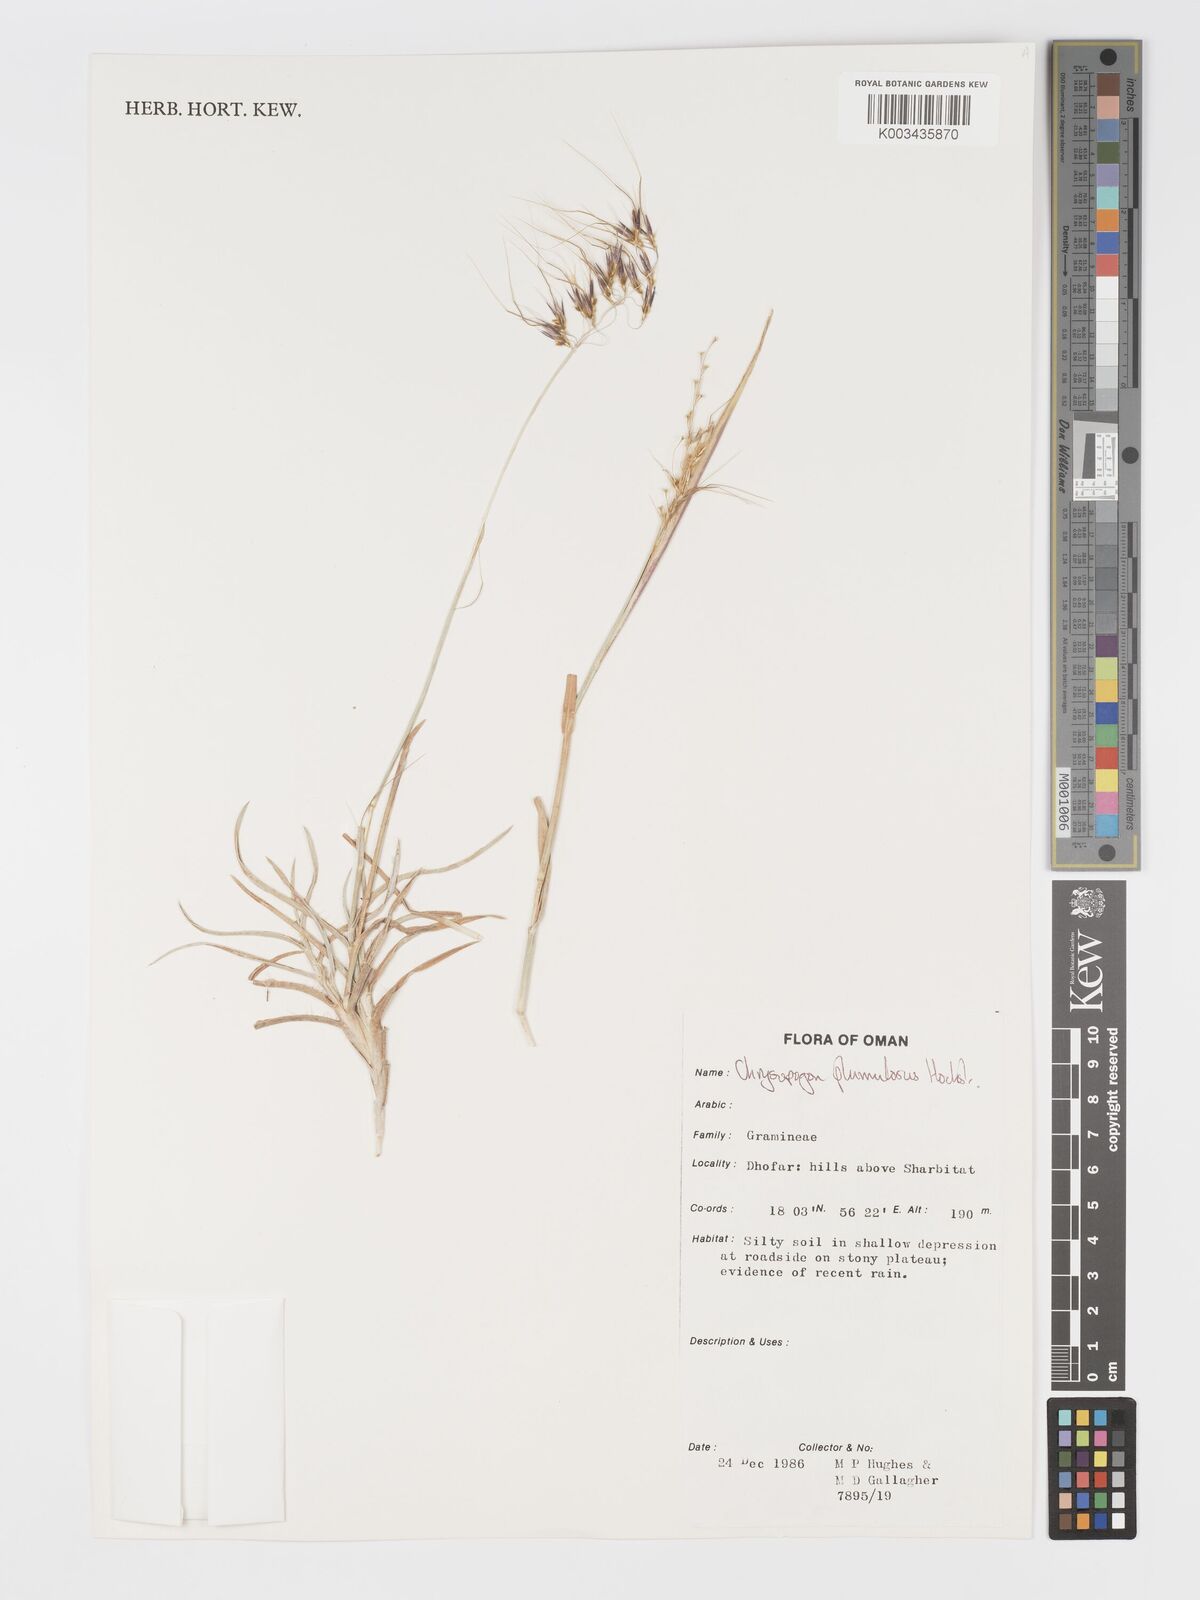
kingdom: Plantae
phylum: Tracheophyta
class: Liliopsida
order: Poales
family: Poaceae
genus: Chrysopogon
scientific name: Chrysopogon plumulosus
